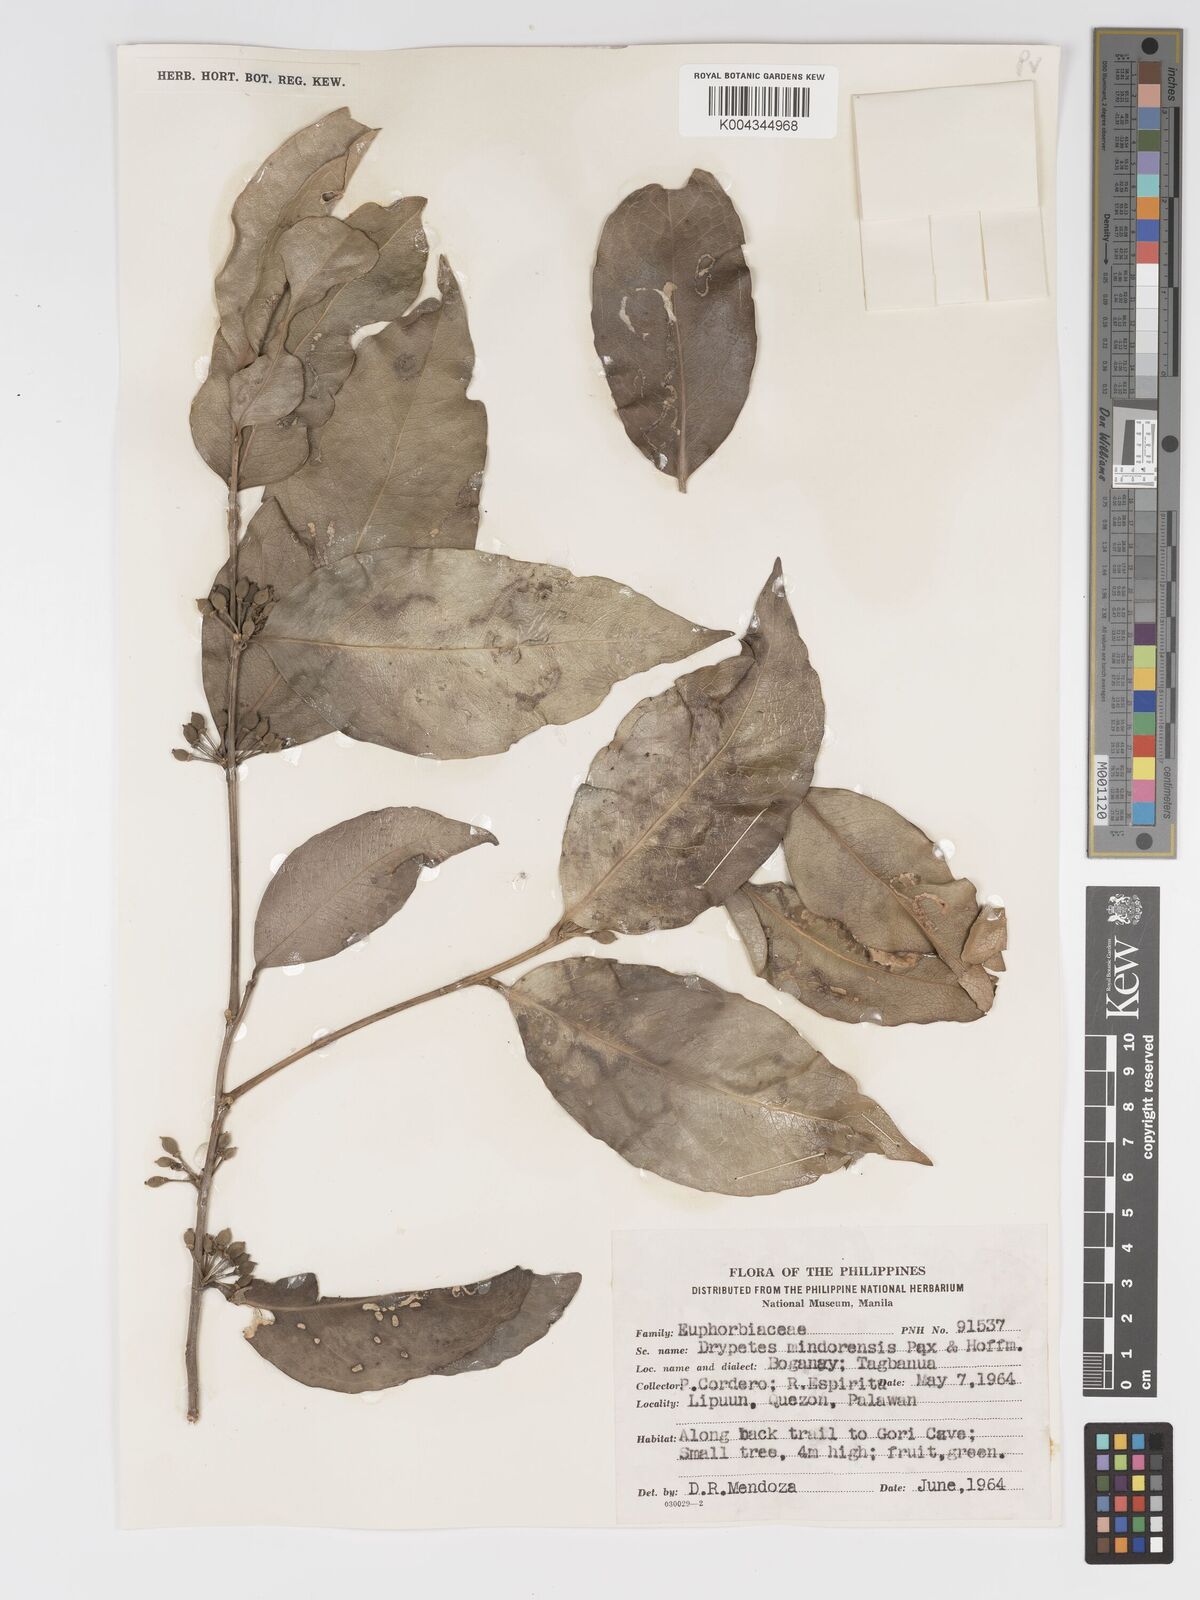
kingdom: Plantae
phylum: Tracheophyta
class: Magnoliopsida
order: Malpighiales
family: Putranjivaceae
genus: Drypetes
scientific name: Drypetes littoralis
